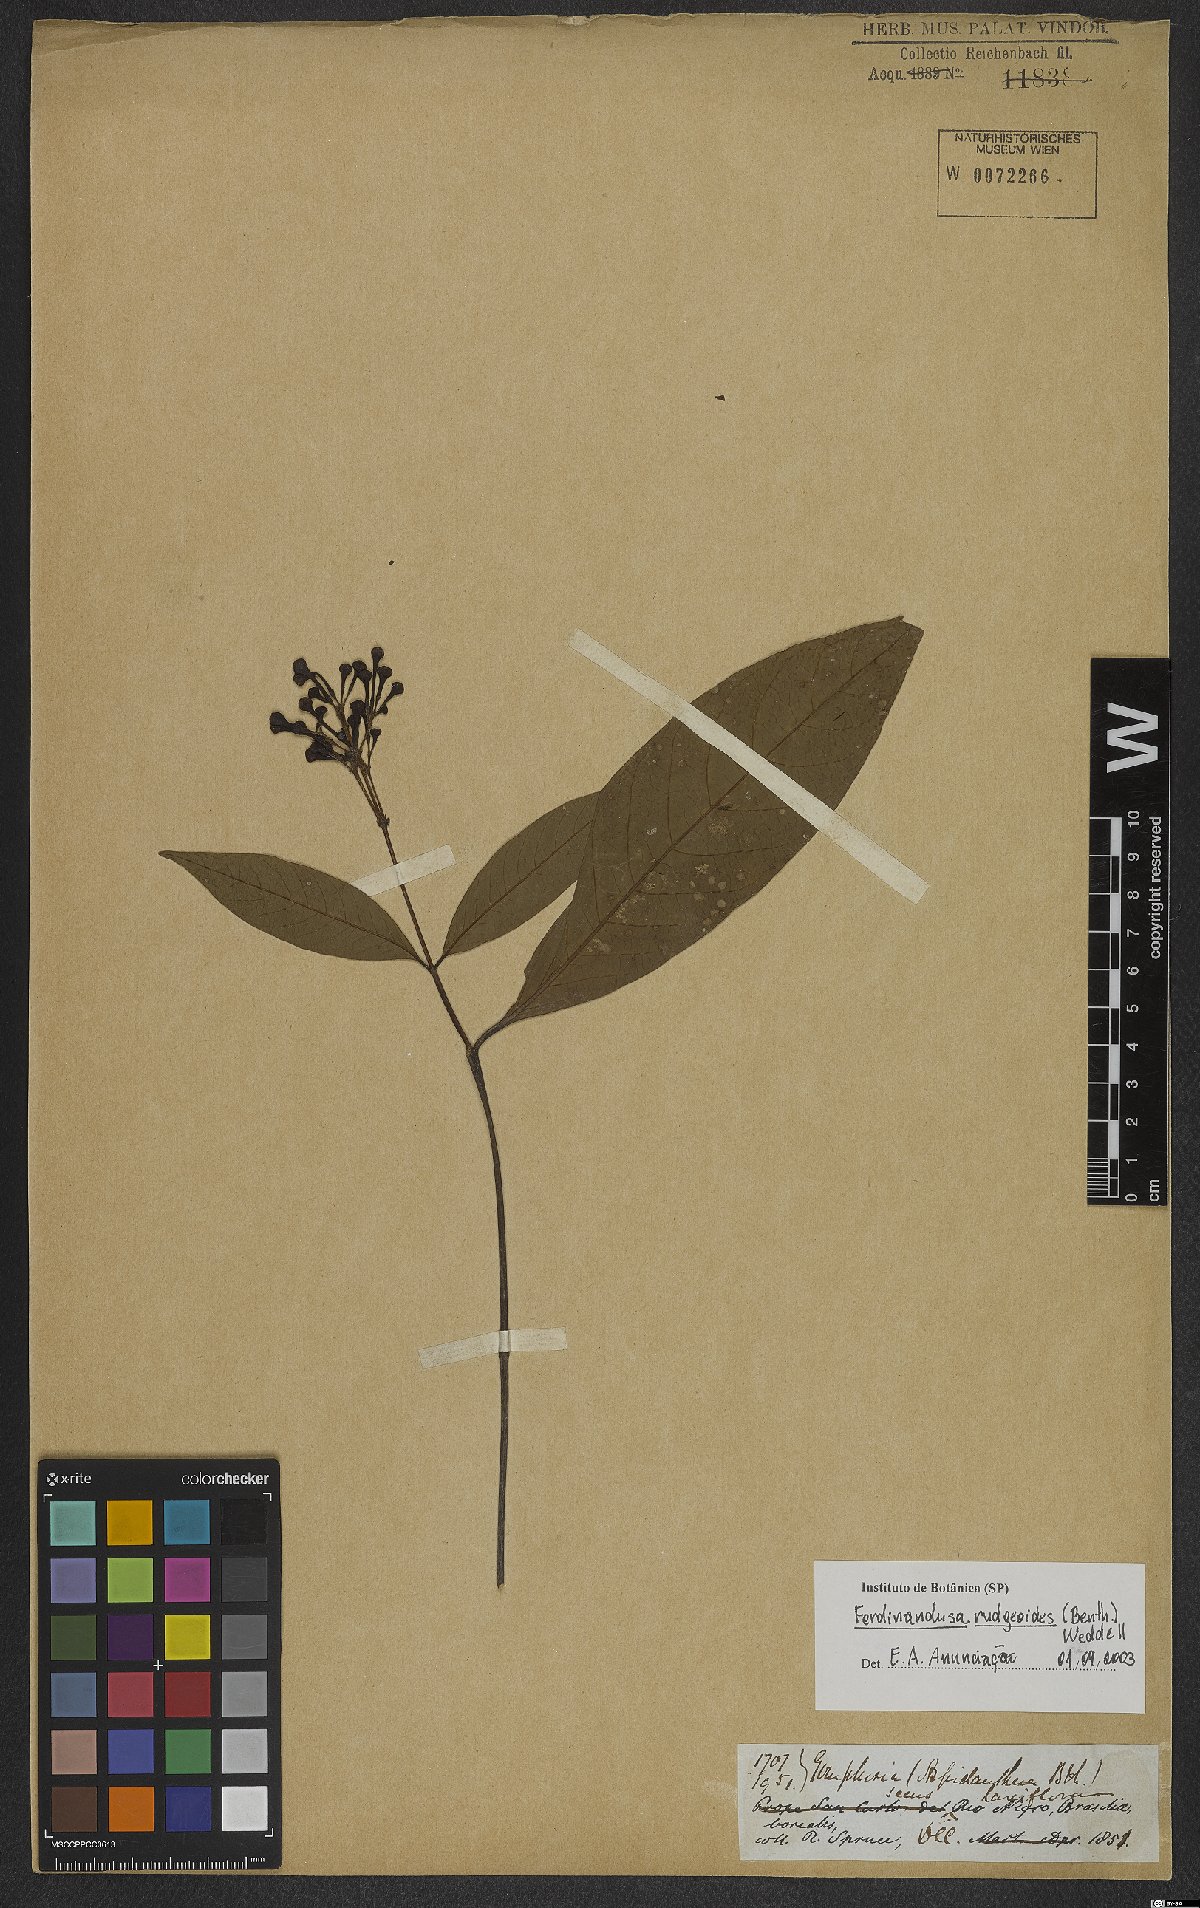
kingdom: Plantae
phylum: Tracheophyta
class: Magnoliopsida
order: Gentianales
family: Rubiaceae
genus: Ferdinandusa
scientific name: Ferdinandusa rudgeoides
